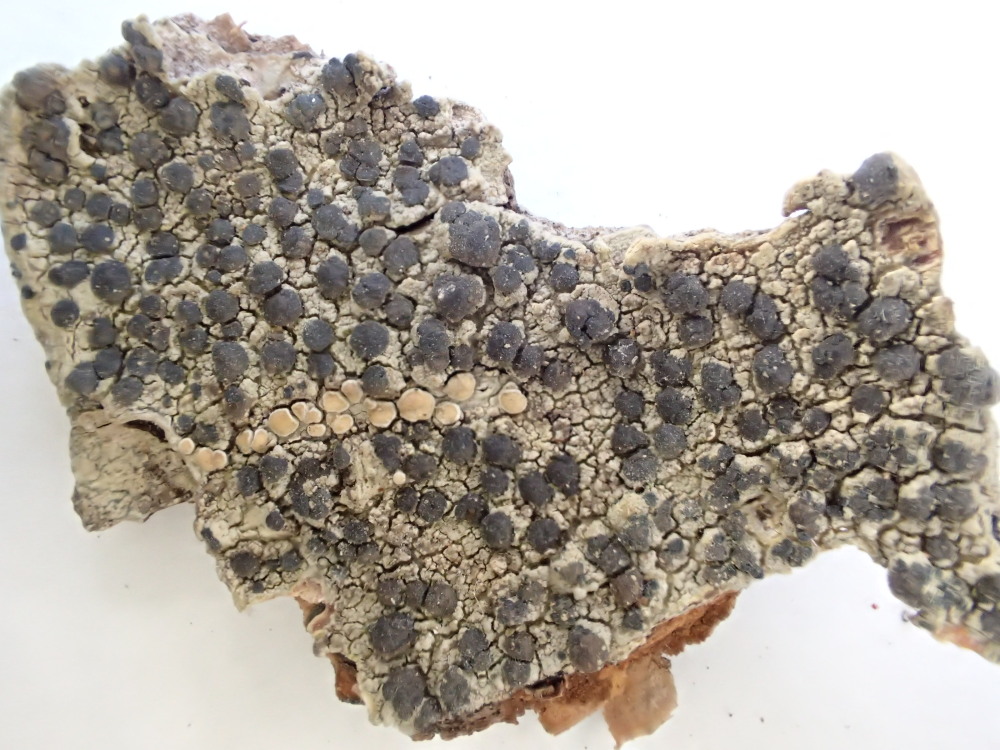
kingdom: Fungi
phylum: Ascomycota
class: Lecanoromycetes
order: Lecanorales
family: Lecanoraceae
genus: Lecidella
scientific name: Lecidella euphorea
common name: vortet skivelav
